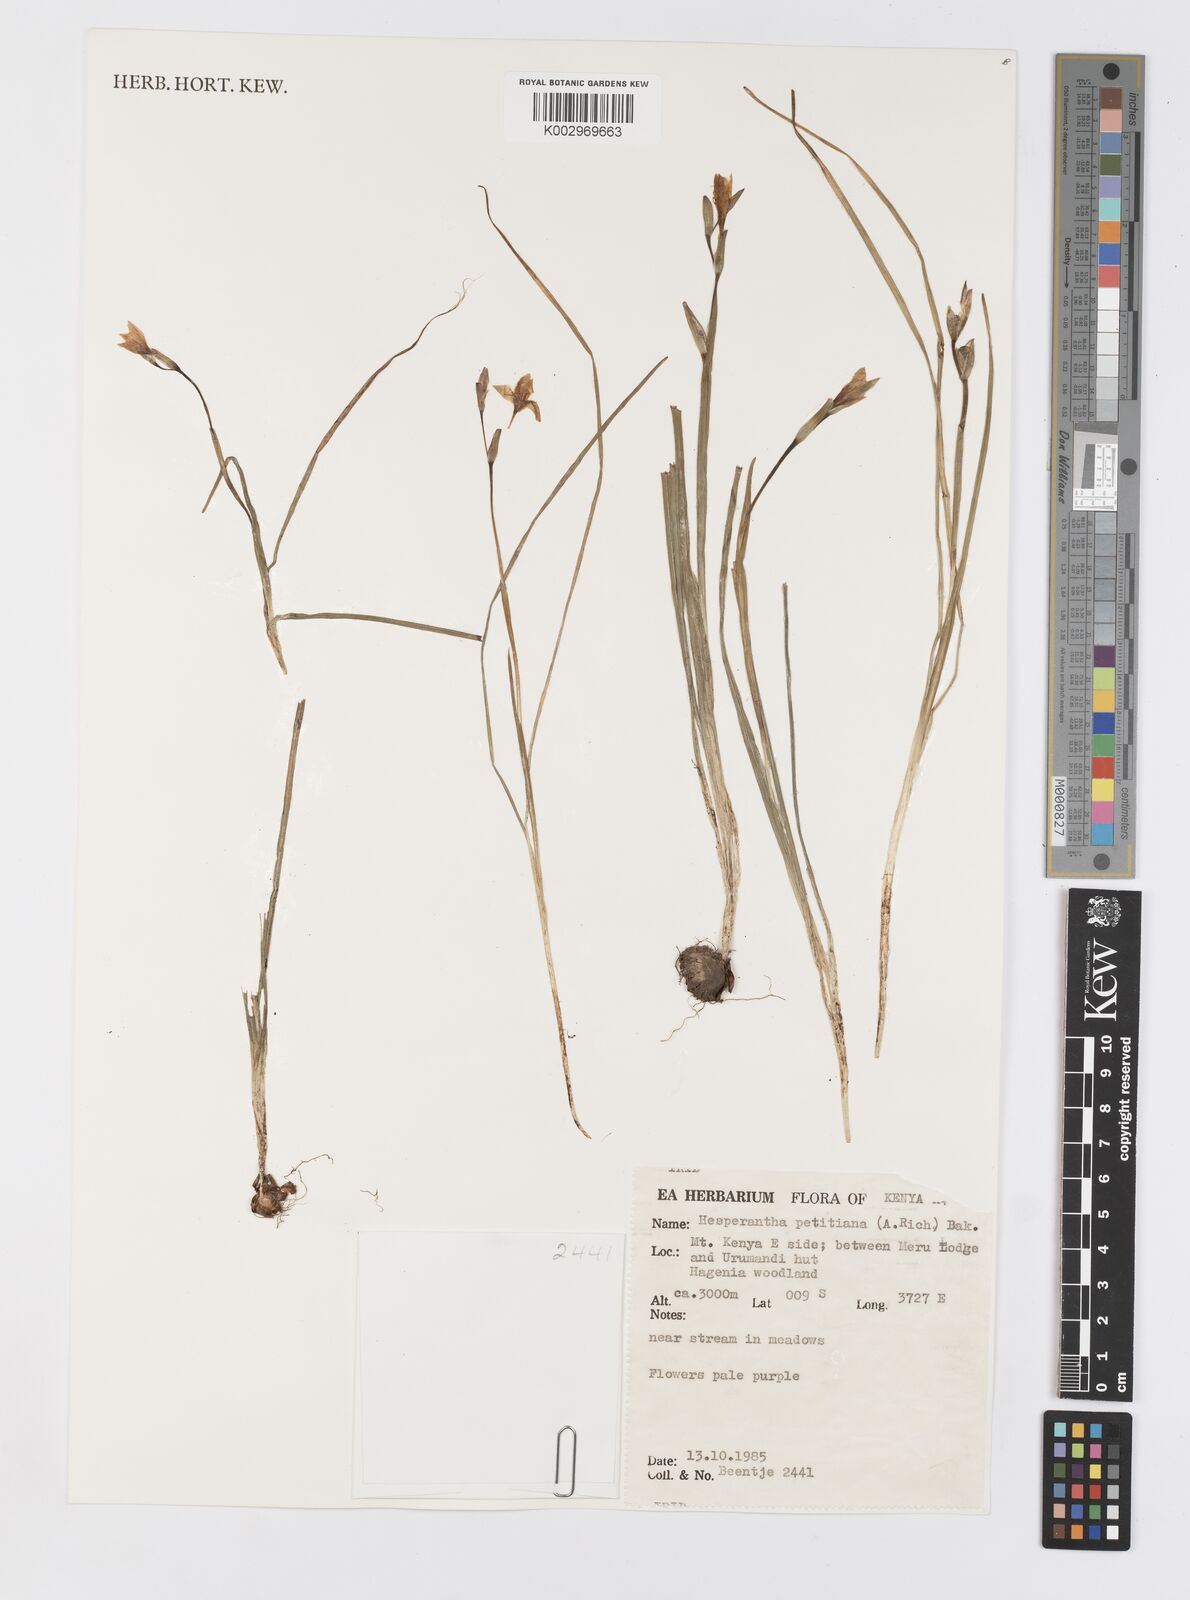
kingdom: Plantae
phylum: Tracheophyta
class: Liliopsida
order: Asparagales
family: Iridaceae
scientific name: Iridaceae
